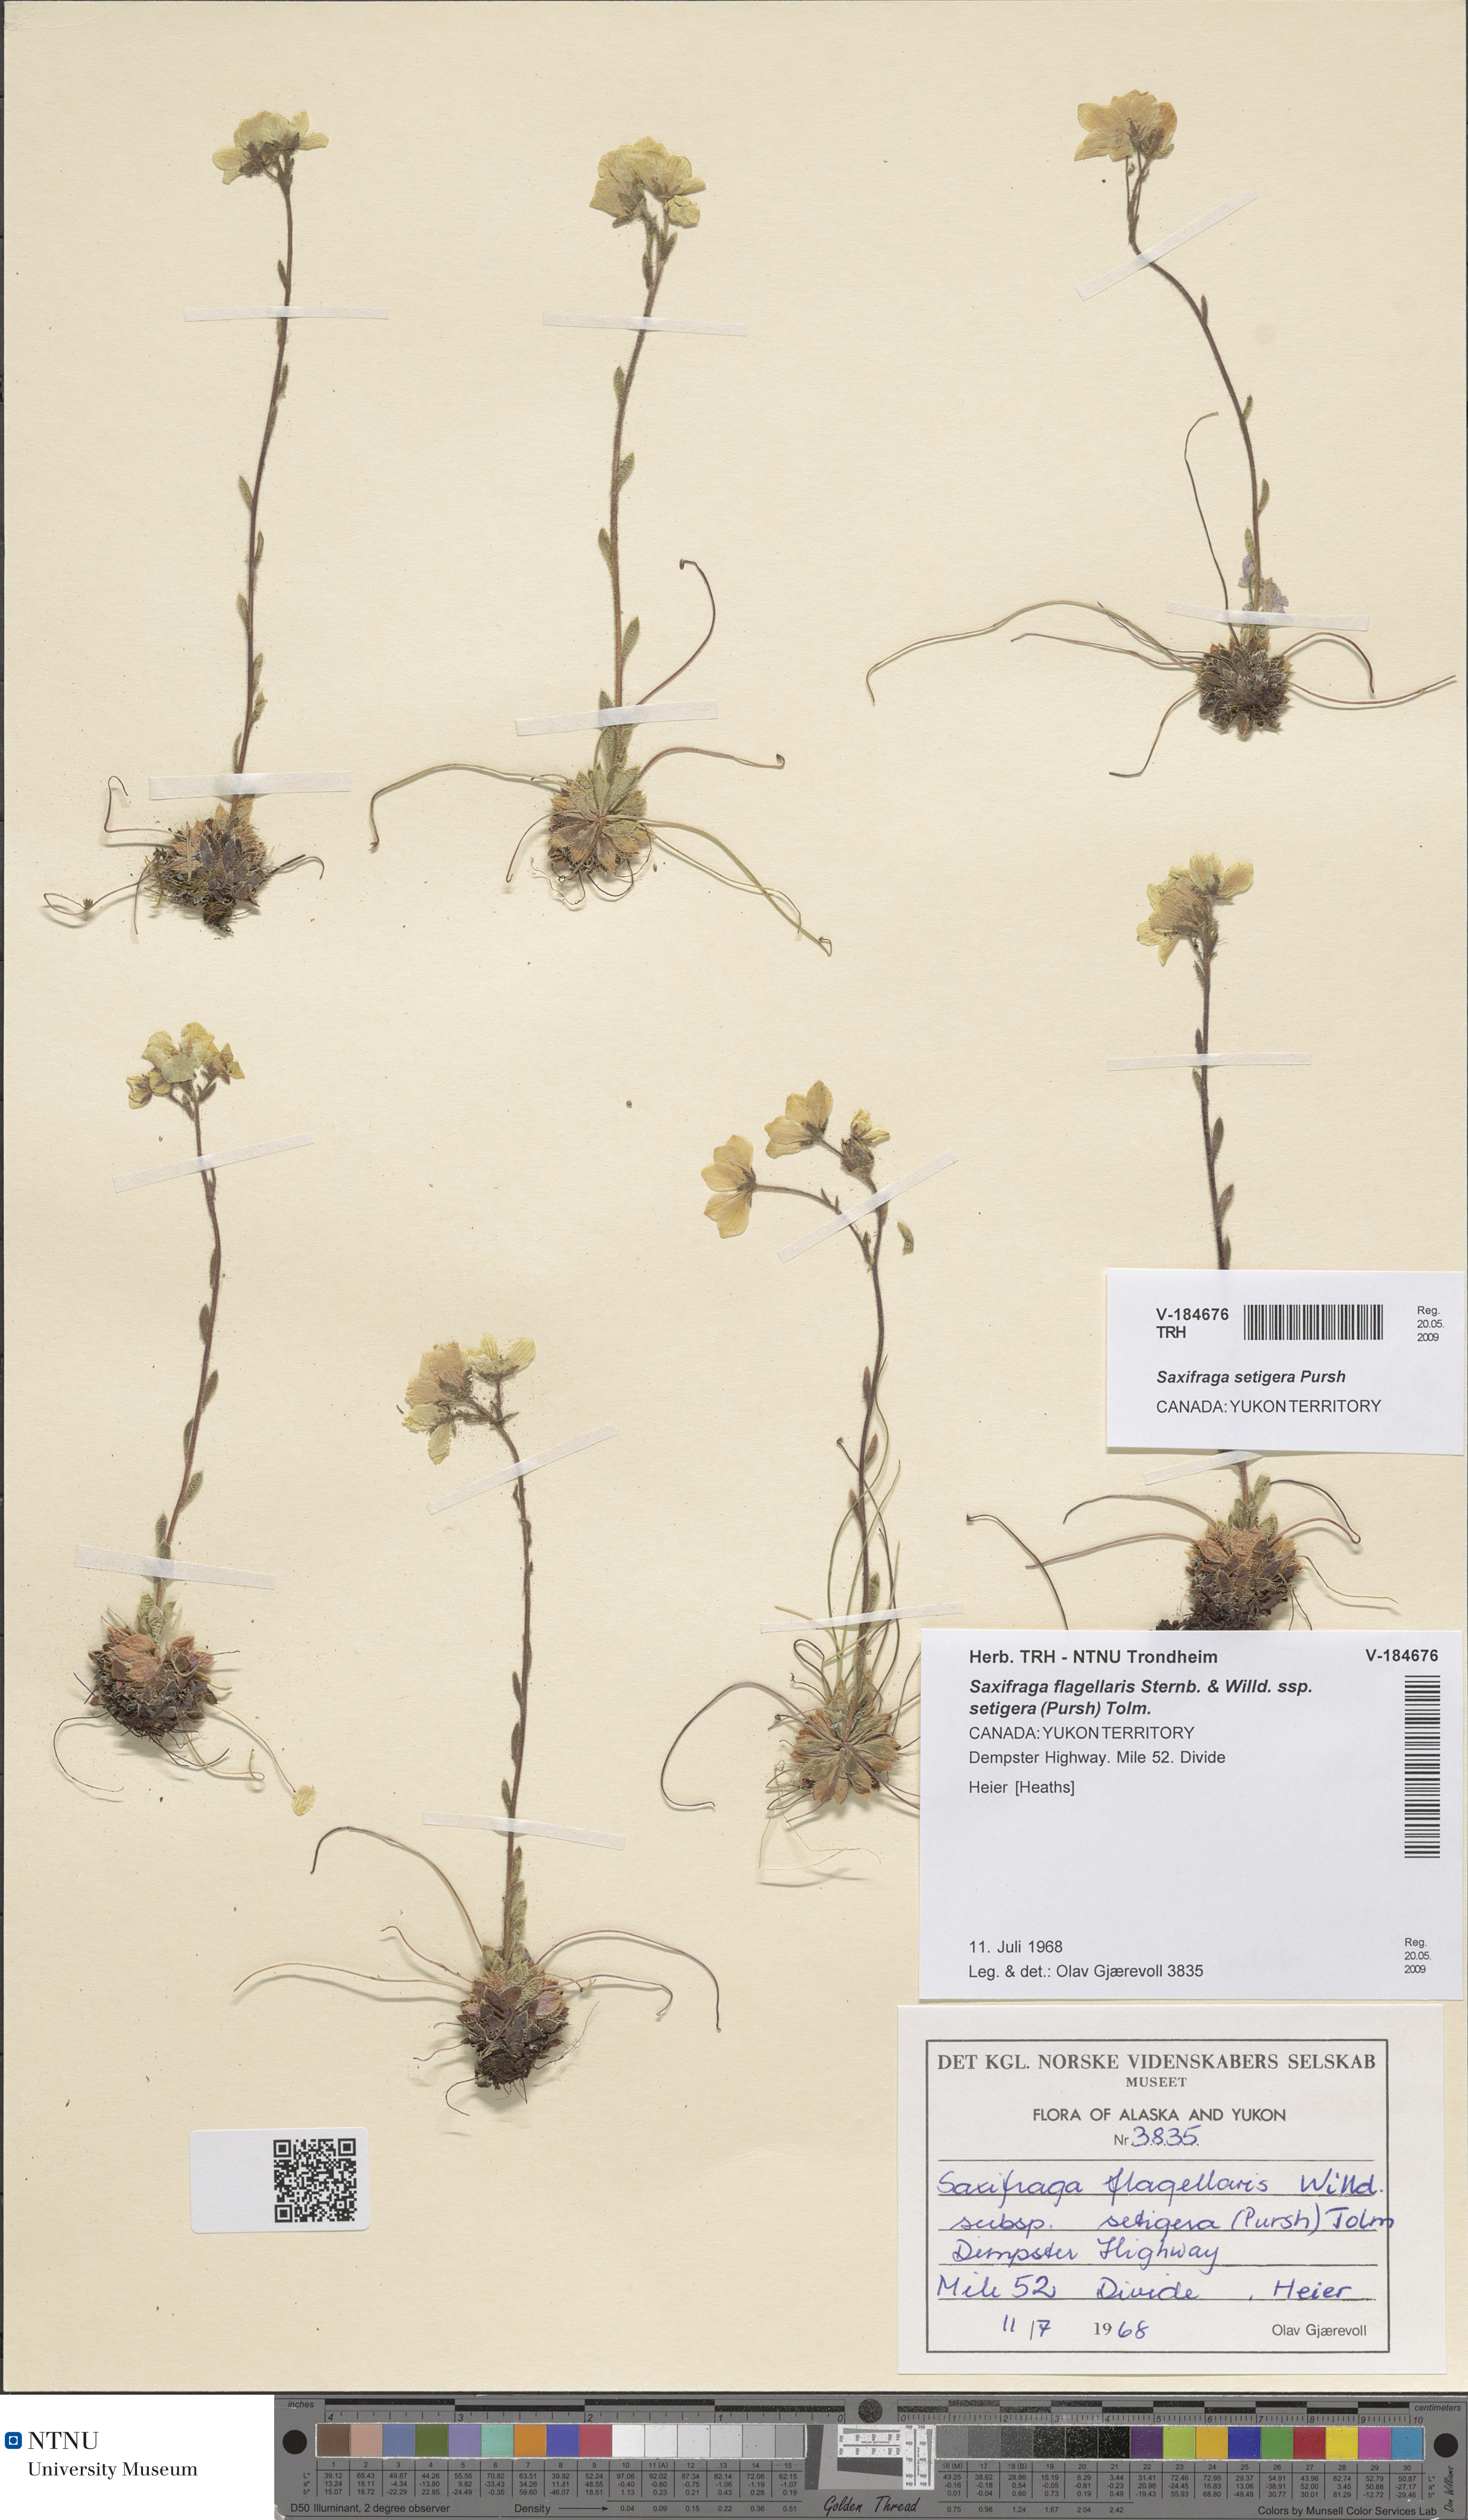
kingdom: Plantae
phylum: Tracheophyta
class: Magnoliopsida
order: Saxifragales
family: Saxifragaceae
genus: Saxifraga
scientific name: Saxifraga flagellaris
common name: Spider saxifrage
